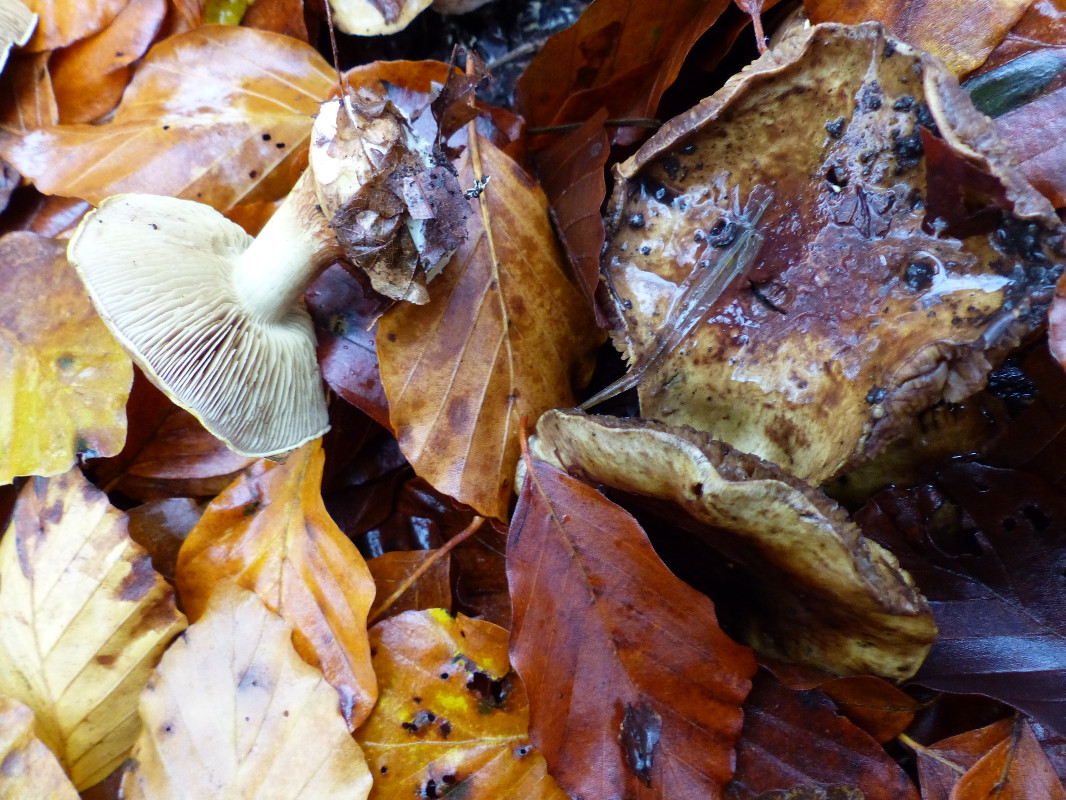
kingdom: Fungi
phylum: Basidiomycota
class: Agaricomycetes
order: Agaricales
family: Cortinariaceae
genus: Calonarius
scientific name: Calonarius citrinus
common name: citrongul slørhat
